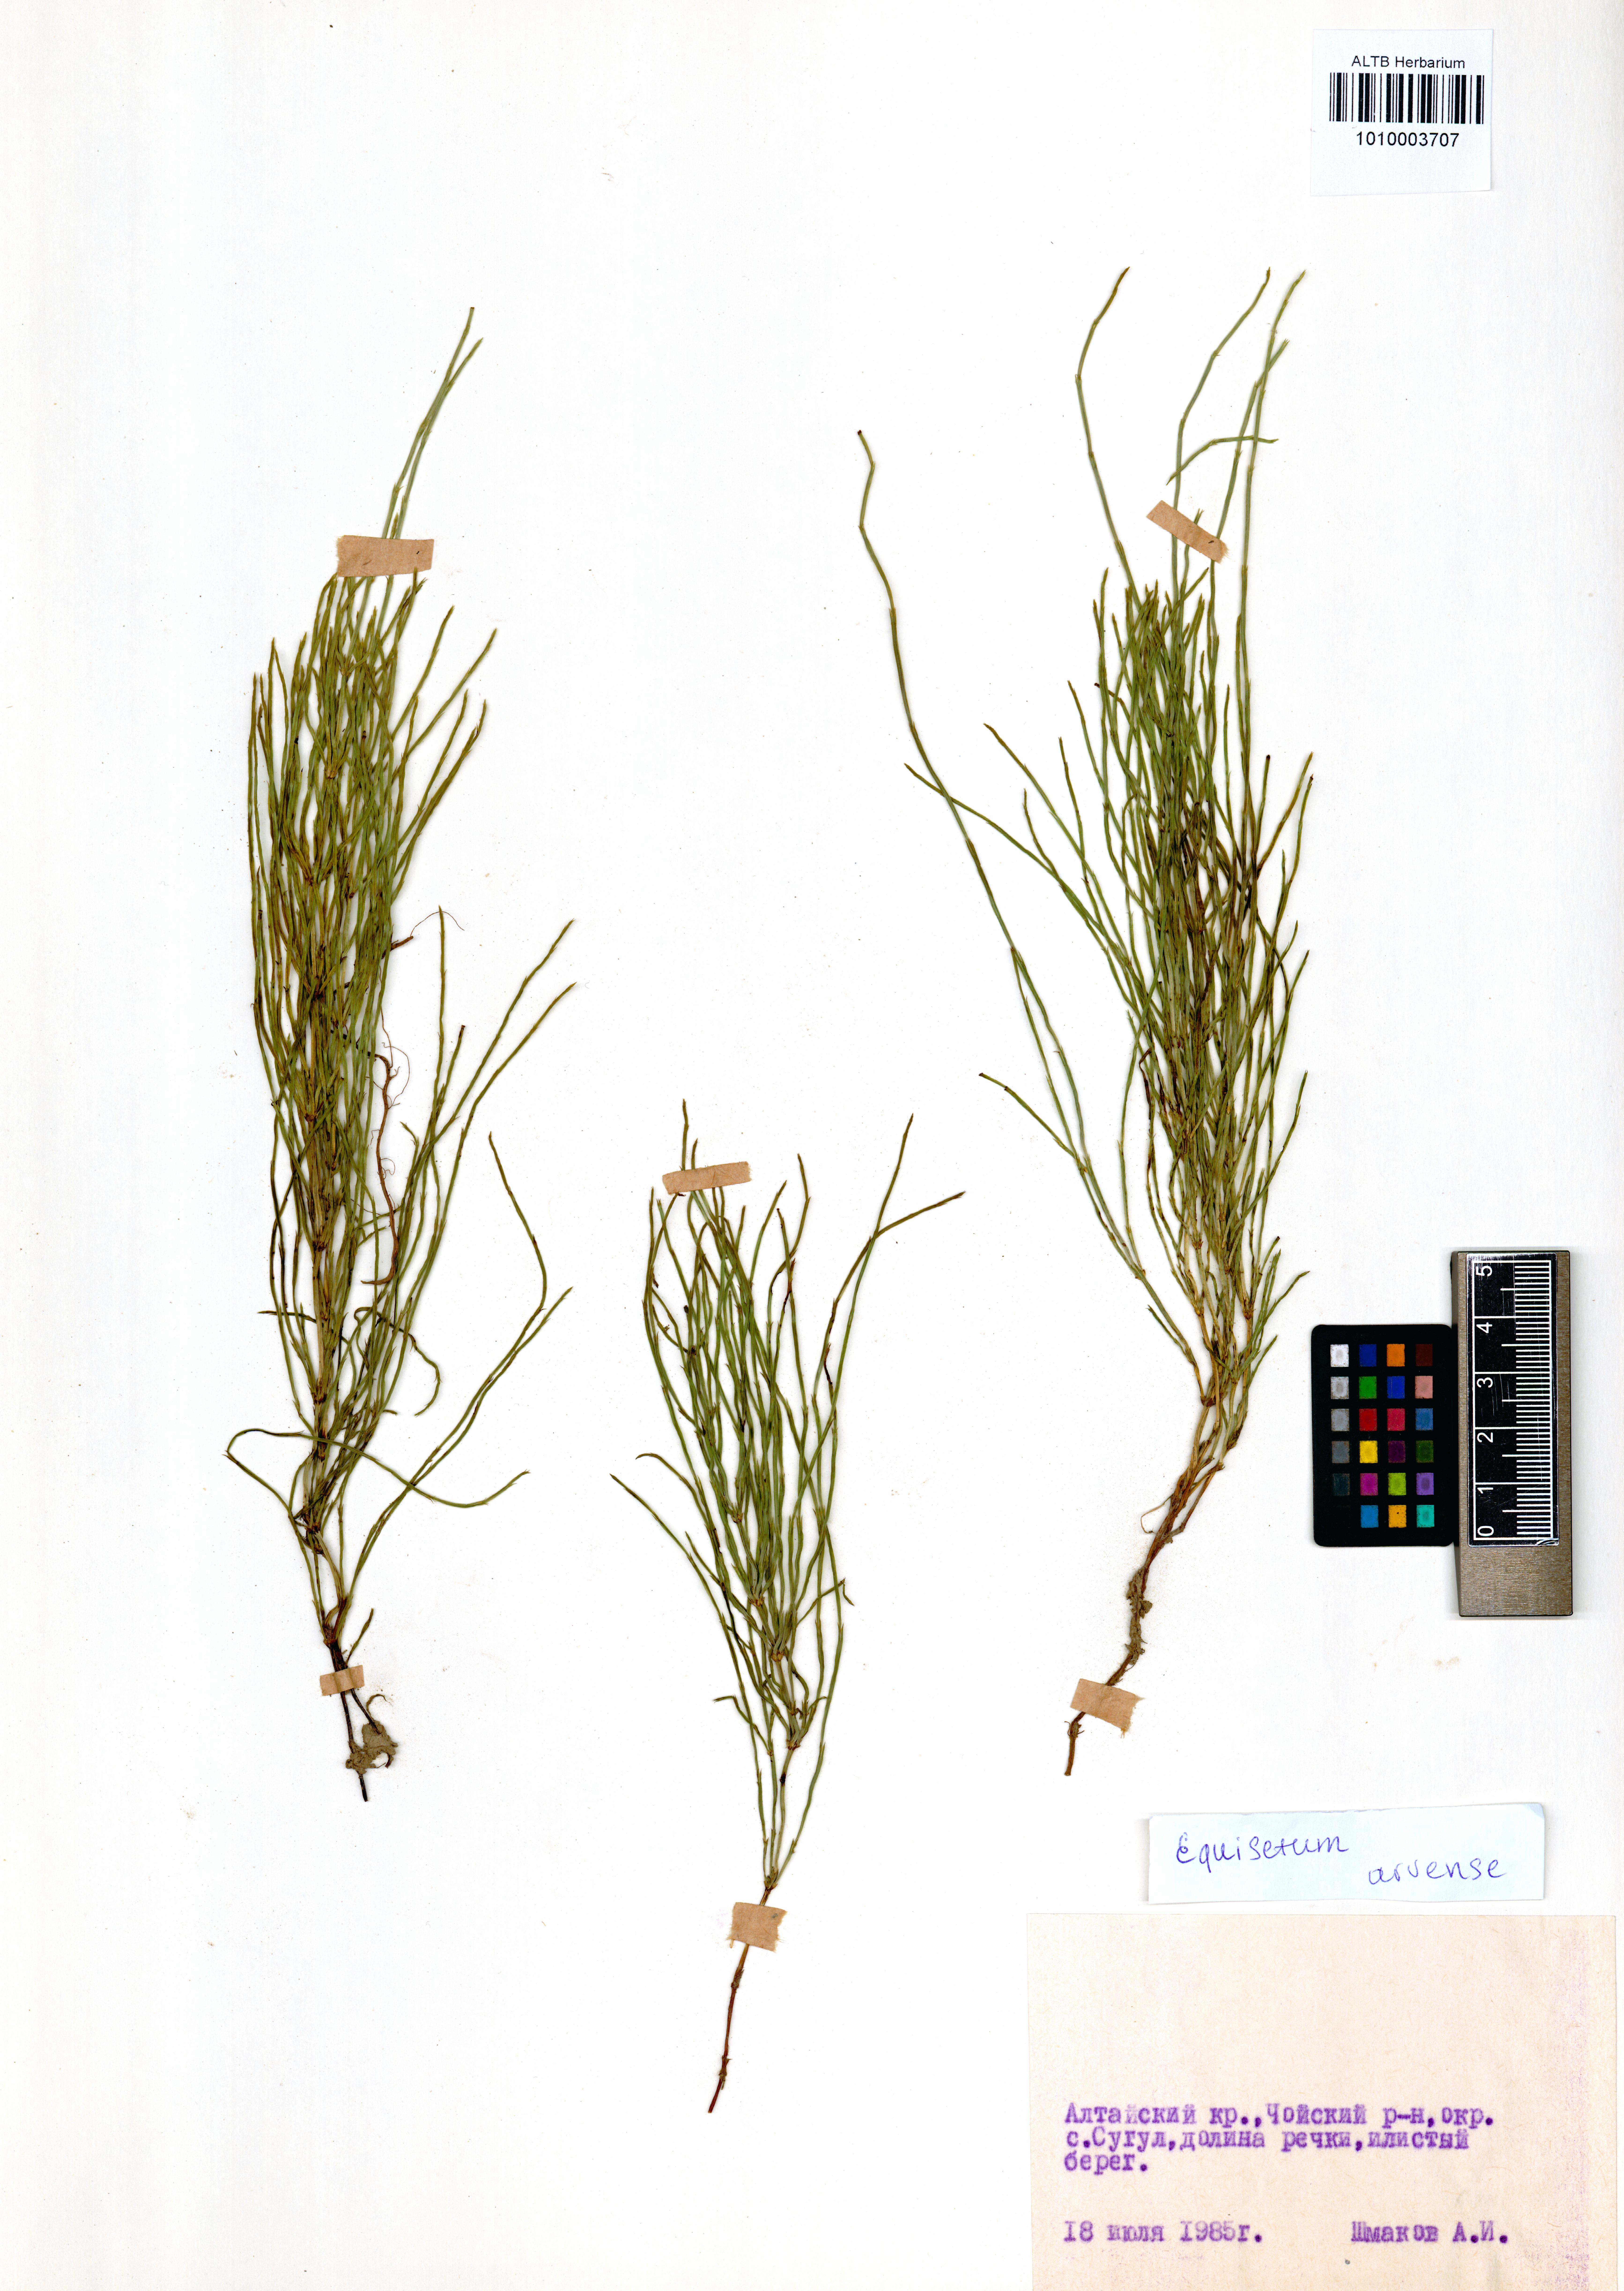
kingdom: Plantae
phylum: Tracheophyta
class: Polypodiopsida
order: Equisetales
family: Equisetaceae
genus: Equisetum
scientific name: Equisetum arvense
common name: Field horsetail
